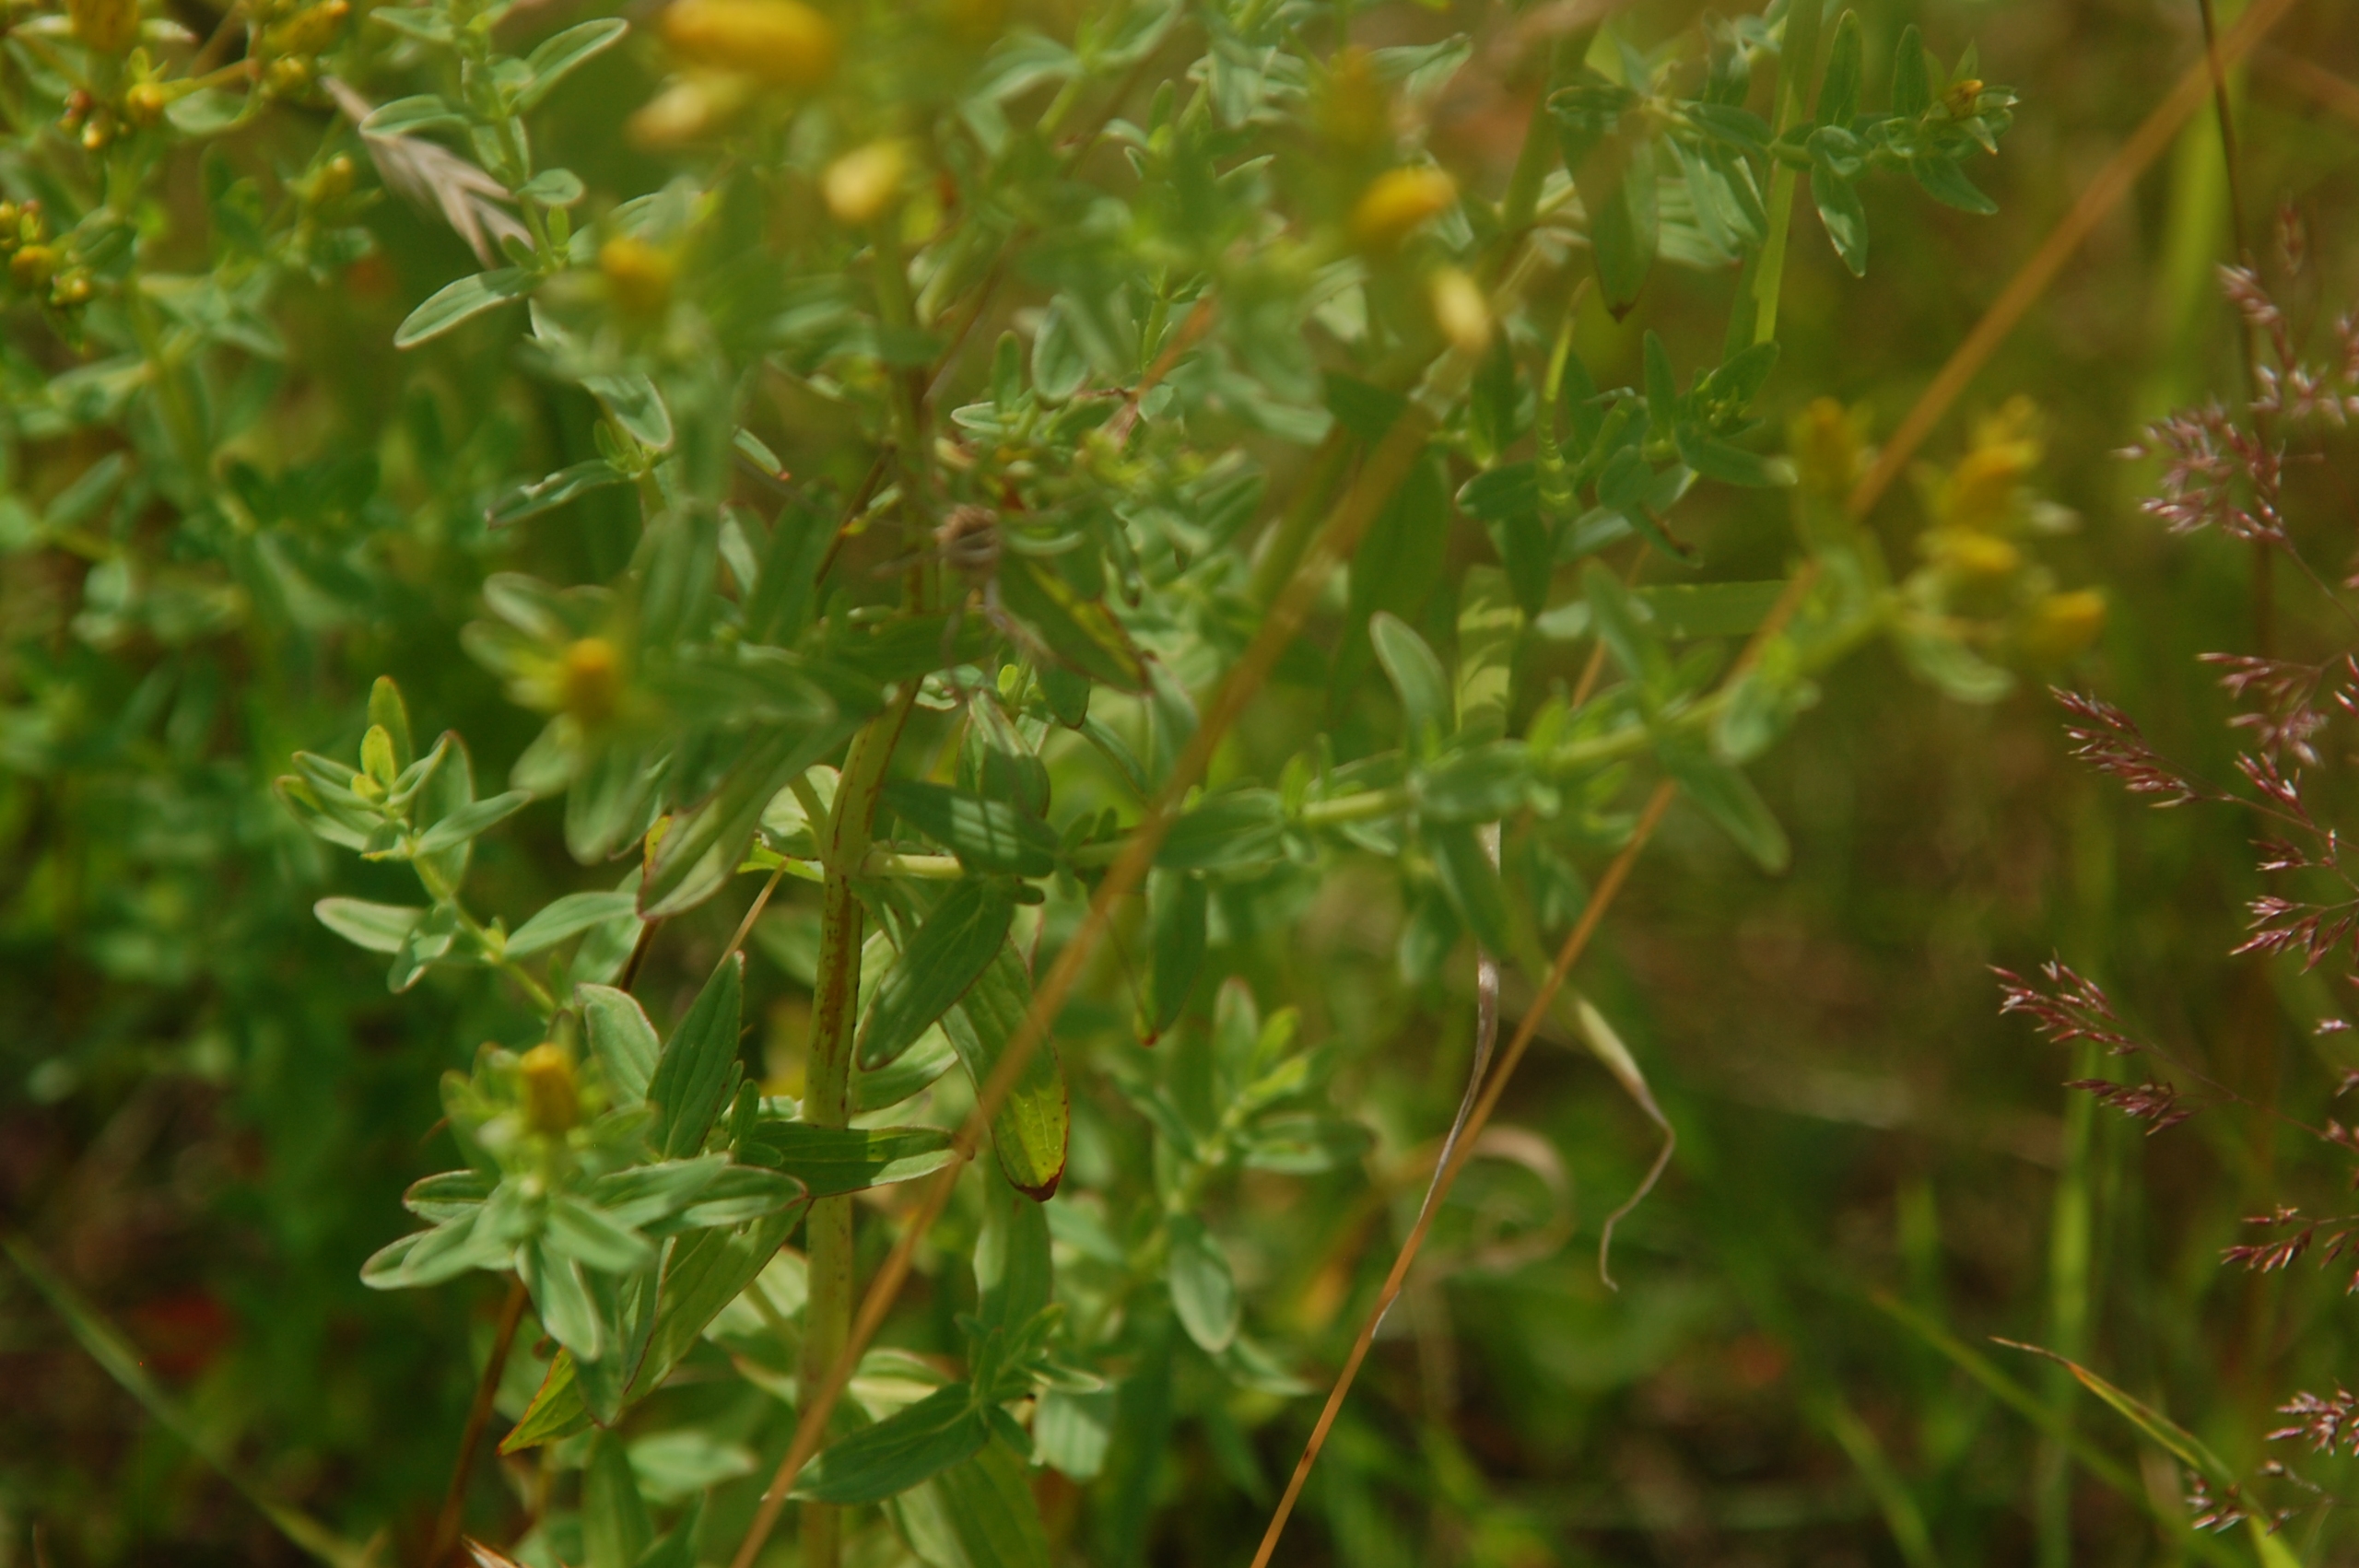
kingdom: Plantae
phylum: Tracheophyta
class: Magnoliopsida
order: Malpighiales
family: Hypericaceae
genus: Hypericum
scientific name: Hypericum perforatum
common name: Prikbladet perikon
